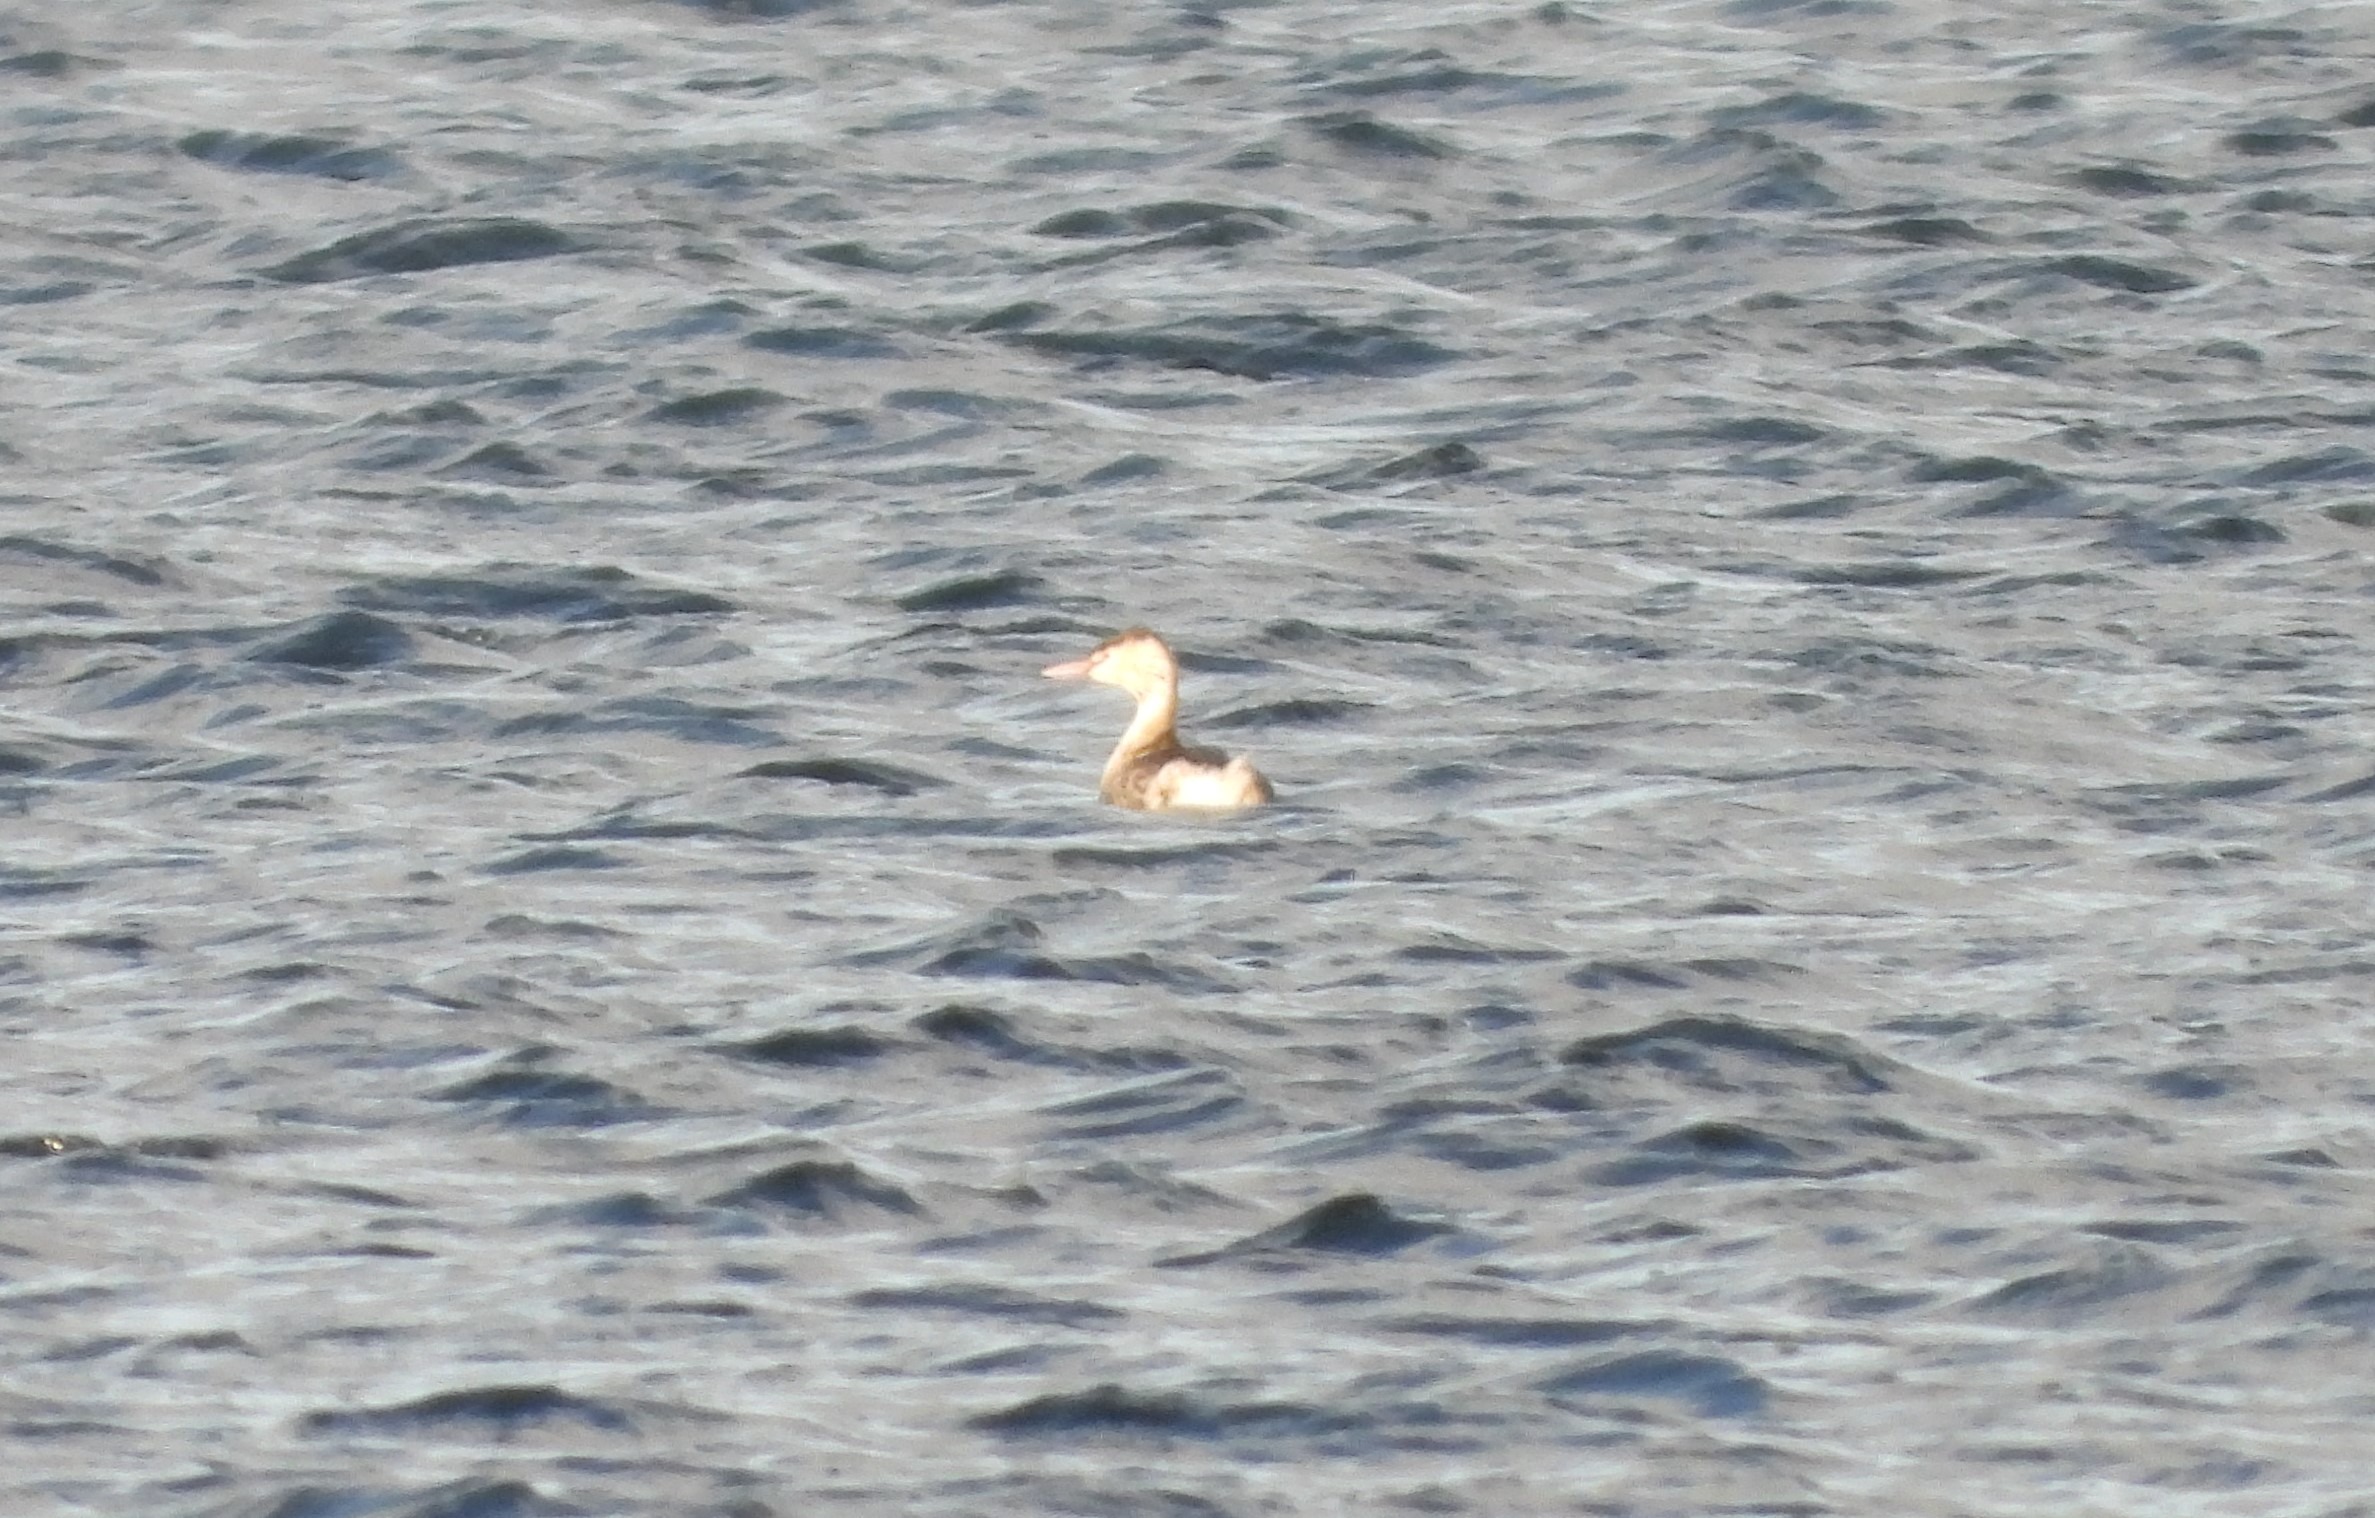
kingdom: Animalia
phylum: Chordata
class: Aves
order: Podicipediformes
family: Podicipedidae
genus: Podiceps
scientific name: Podiceps cristatus
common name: Toppet lappedykker
